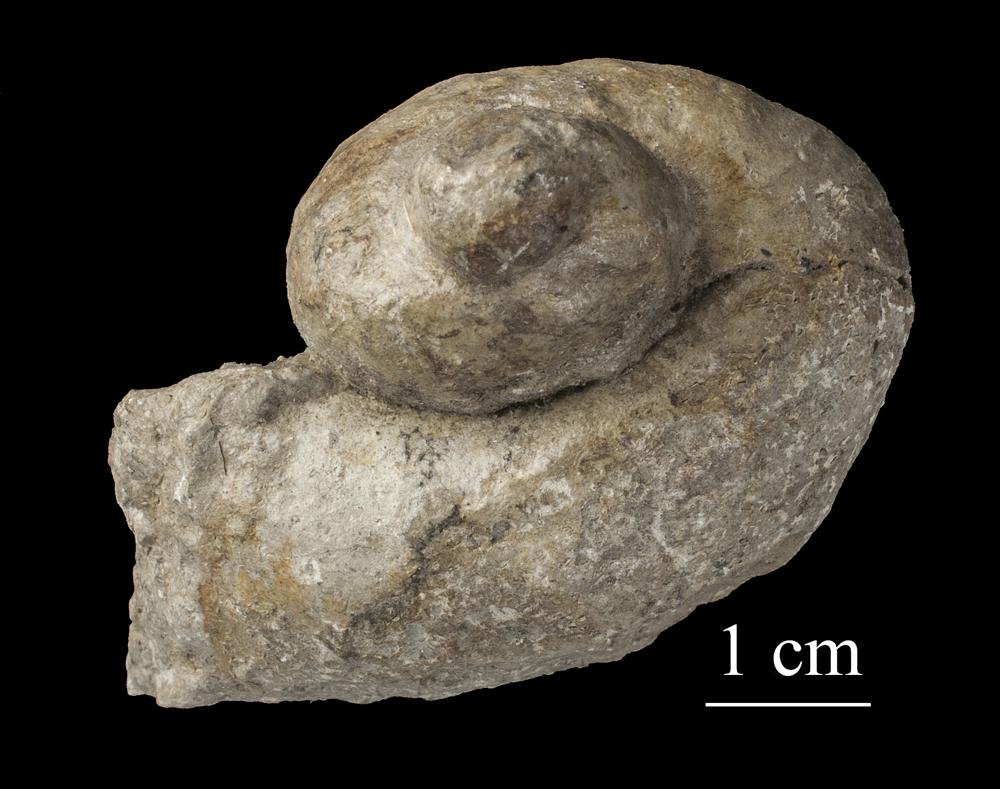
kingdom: Animalia
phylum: Mollusca
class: Gastropoda
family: Holopeidae
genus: Holopea
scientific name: Holopea
